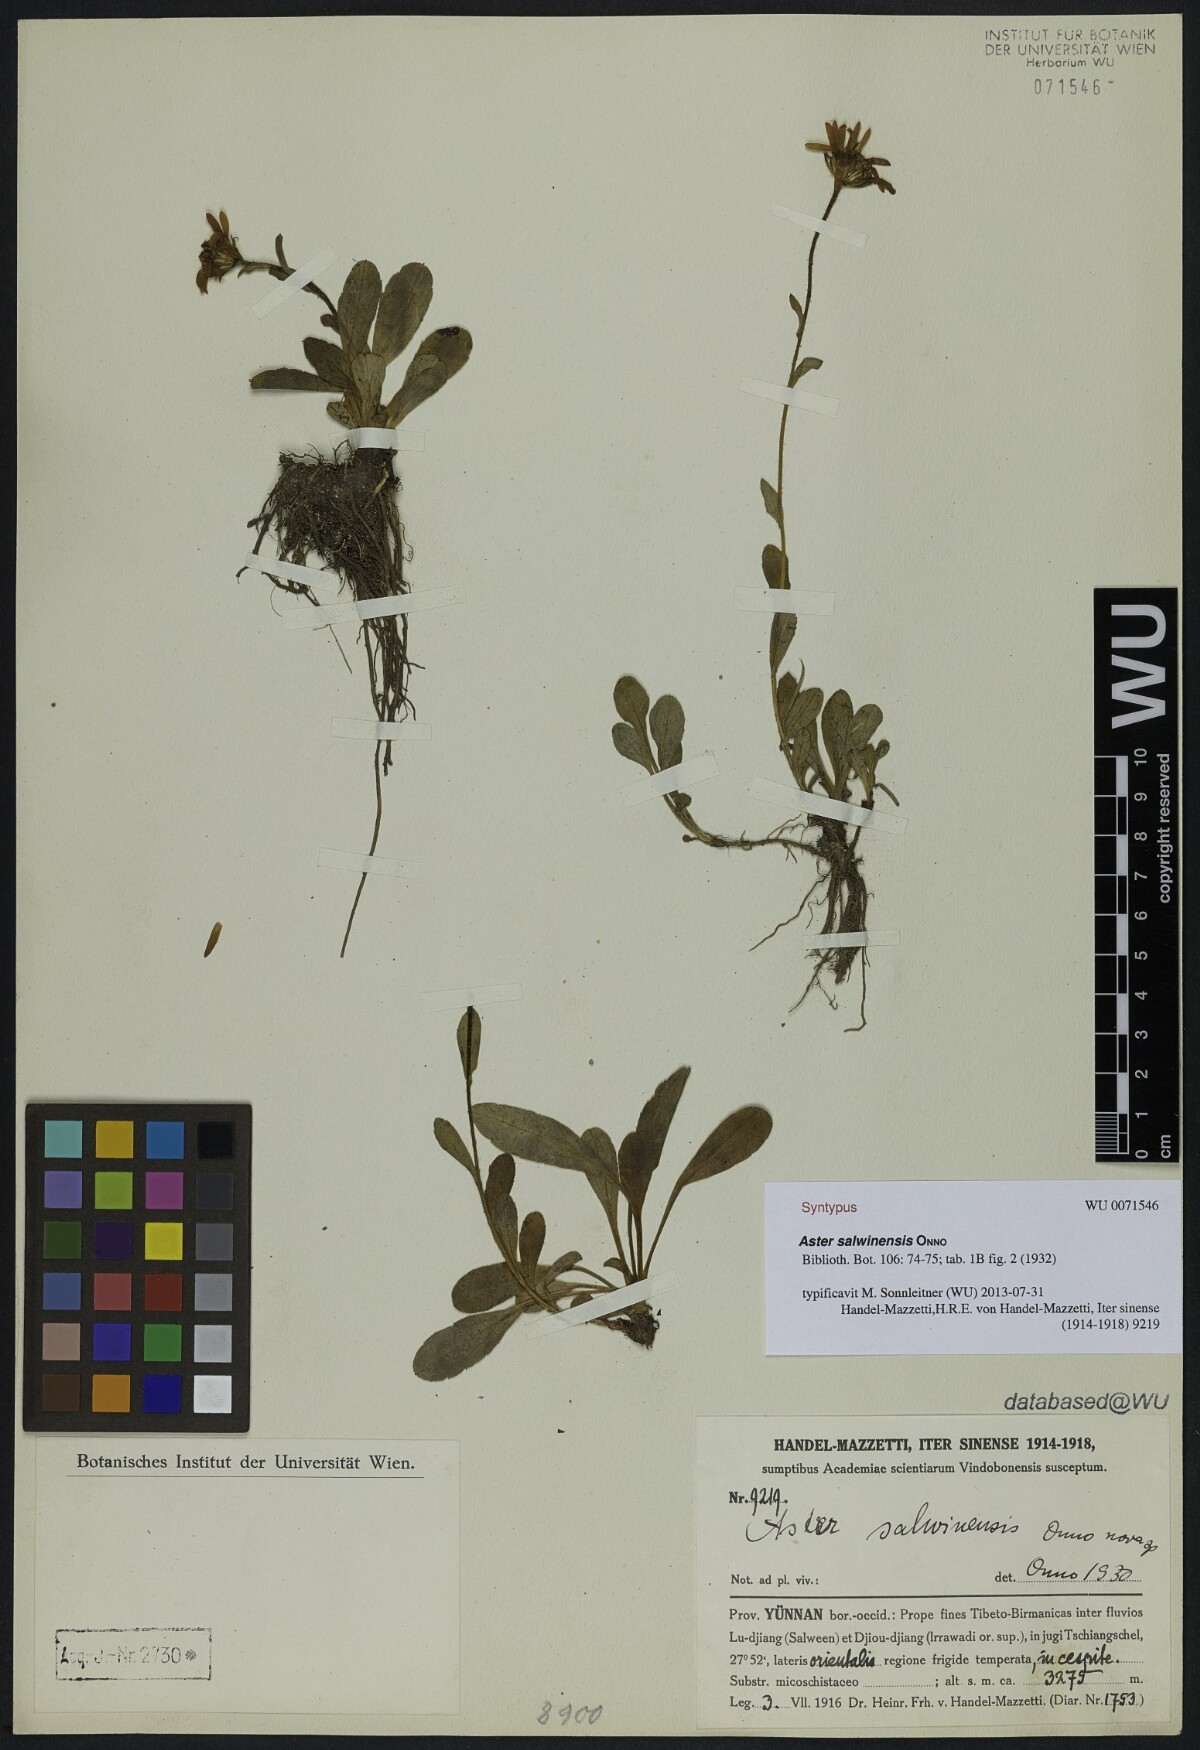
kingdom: Plantae
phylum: Tracheophyta
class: Magnoliopsida
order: Asterales
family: Asteraceae
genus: Tibetiodes
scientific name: Tibetiodes salwinensis
